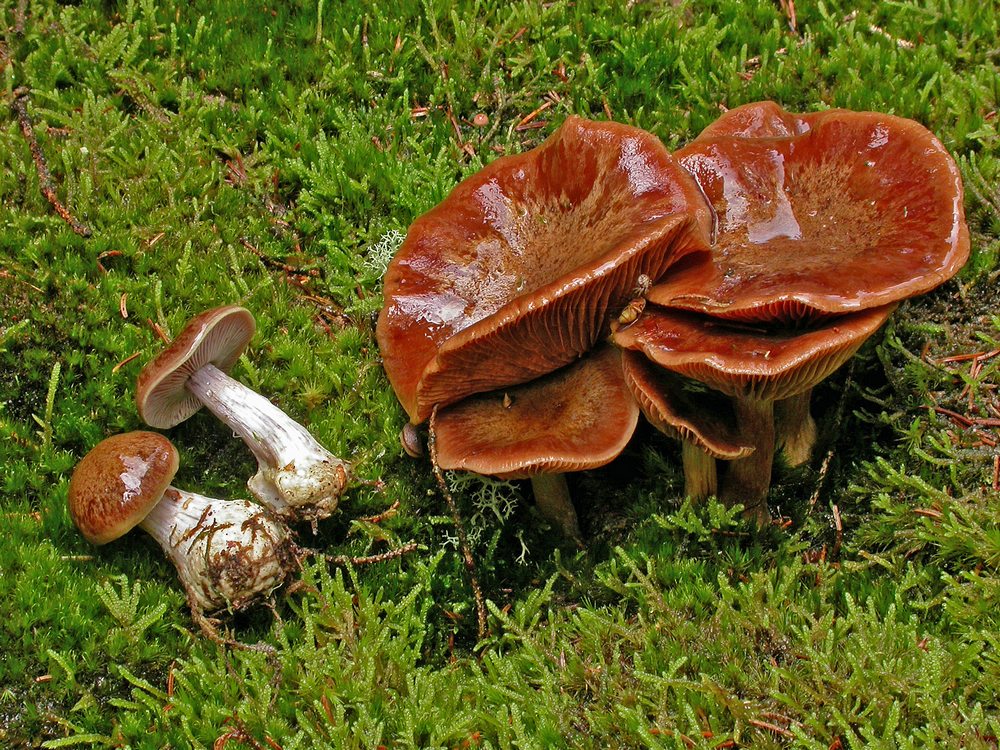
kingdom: Fungi
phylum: Basidiomycota
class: Agaricomycetes
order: Agaricales
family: Cortinariaceae
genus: Thaxterogaster
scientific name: Thaxterogaster sphagnophilus
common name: vandplettet slørhat
